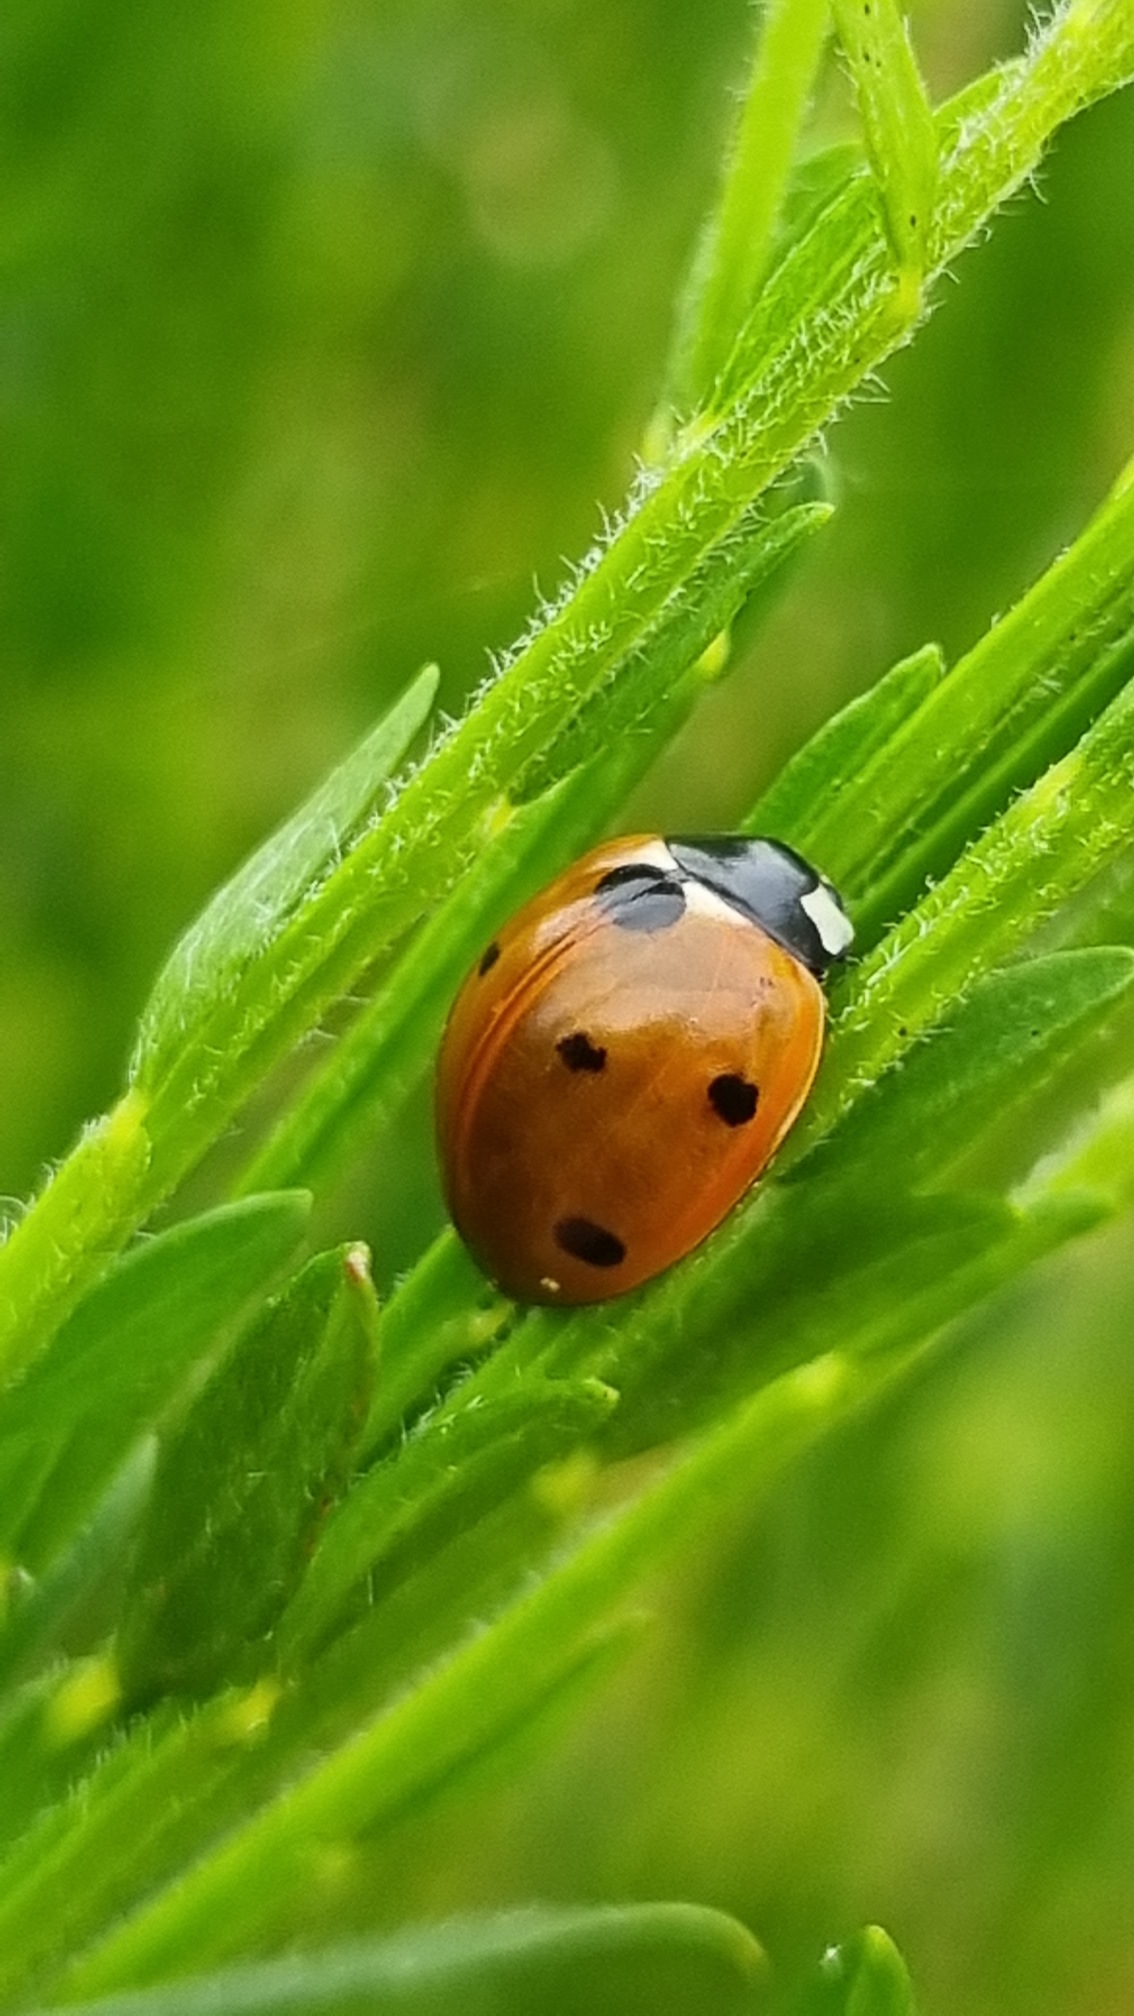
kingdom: Animalia
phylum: Arthropoda
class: Insecta
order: Coleoptera
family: Coccinellidae
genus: Coccinella
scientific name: Coccinella septempunctata
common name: Syvplettet mariehøne
